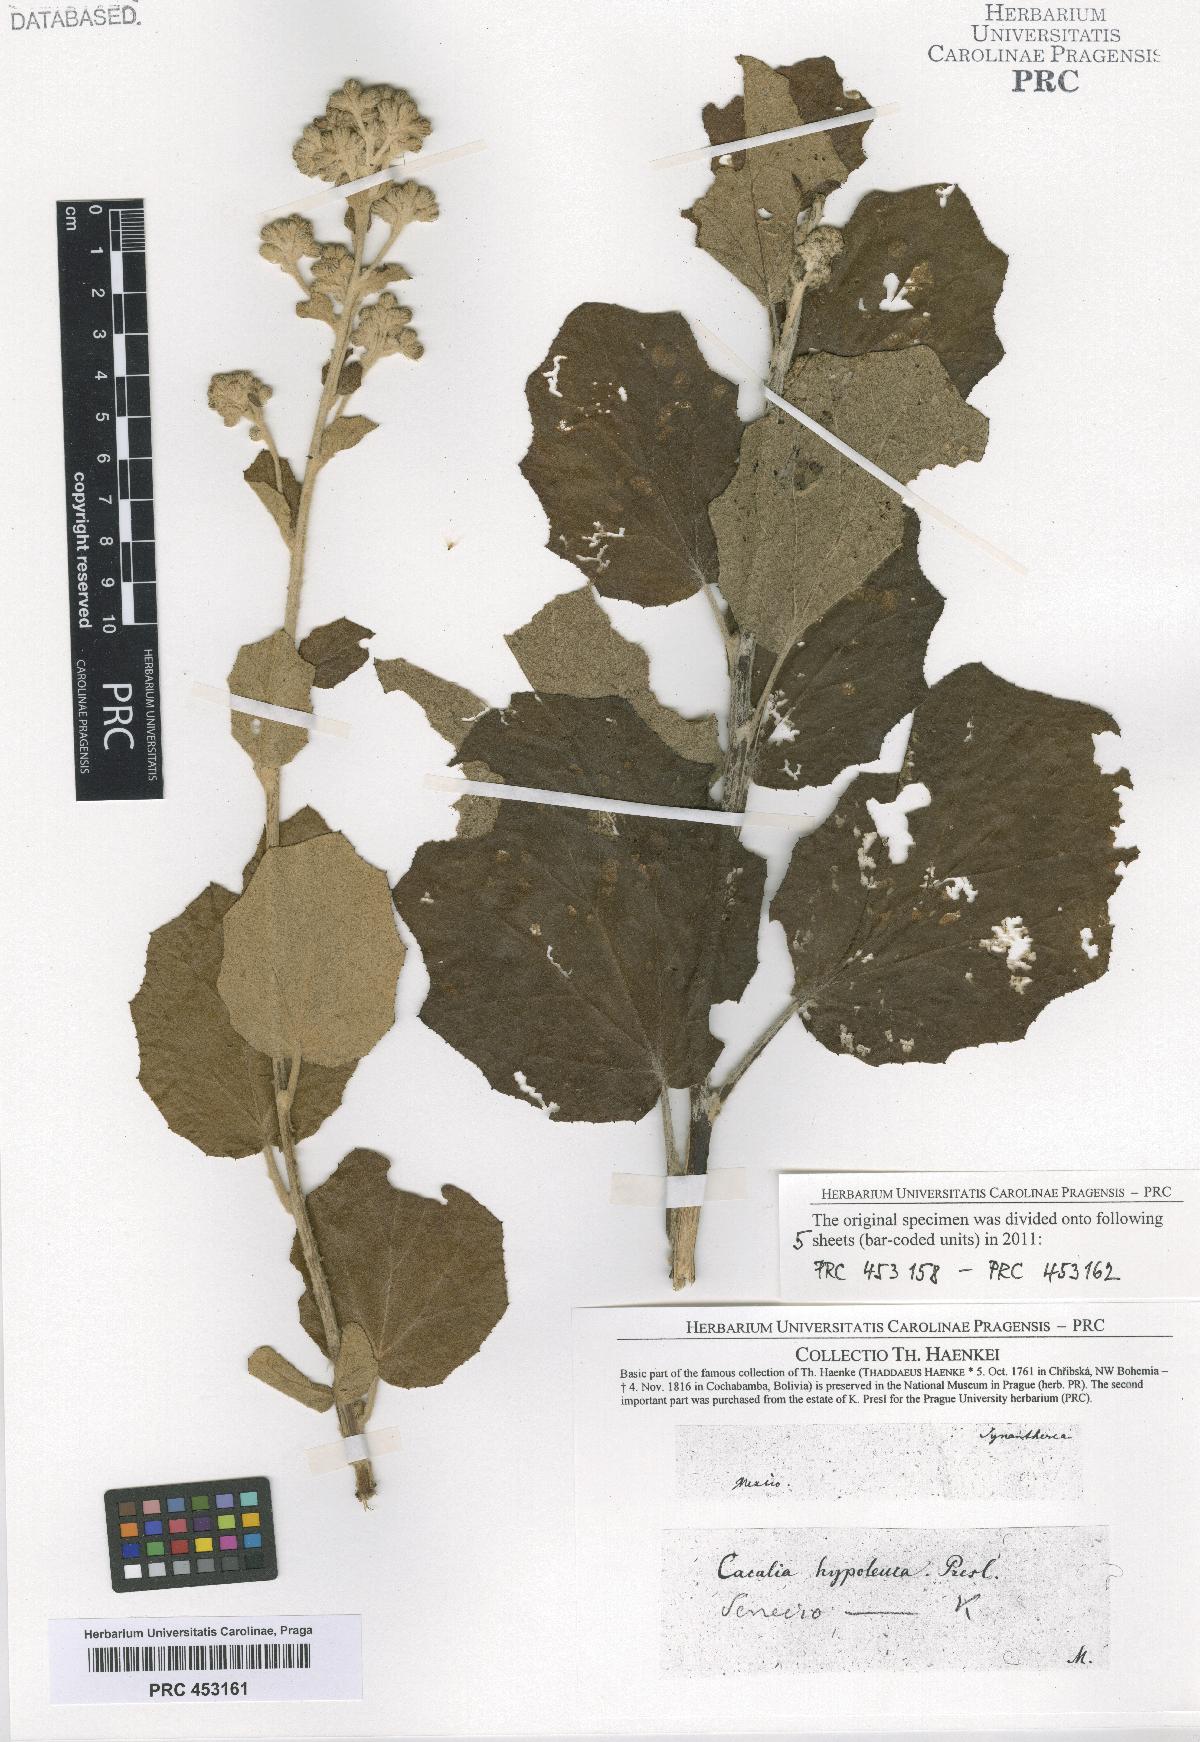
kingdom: Plantae
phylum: Tracheophyta
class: Magnoliopsida
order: Asterales
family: Asteraceae
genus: Senecio
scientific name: Senecio
